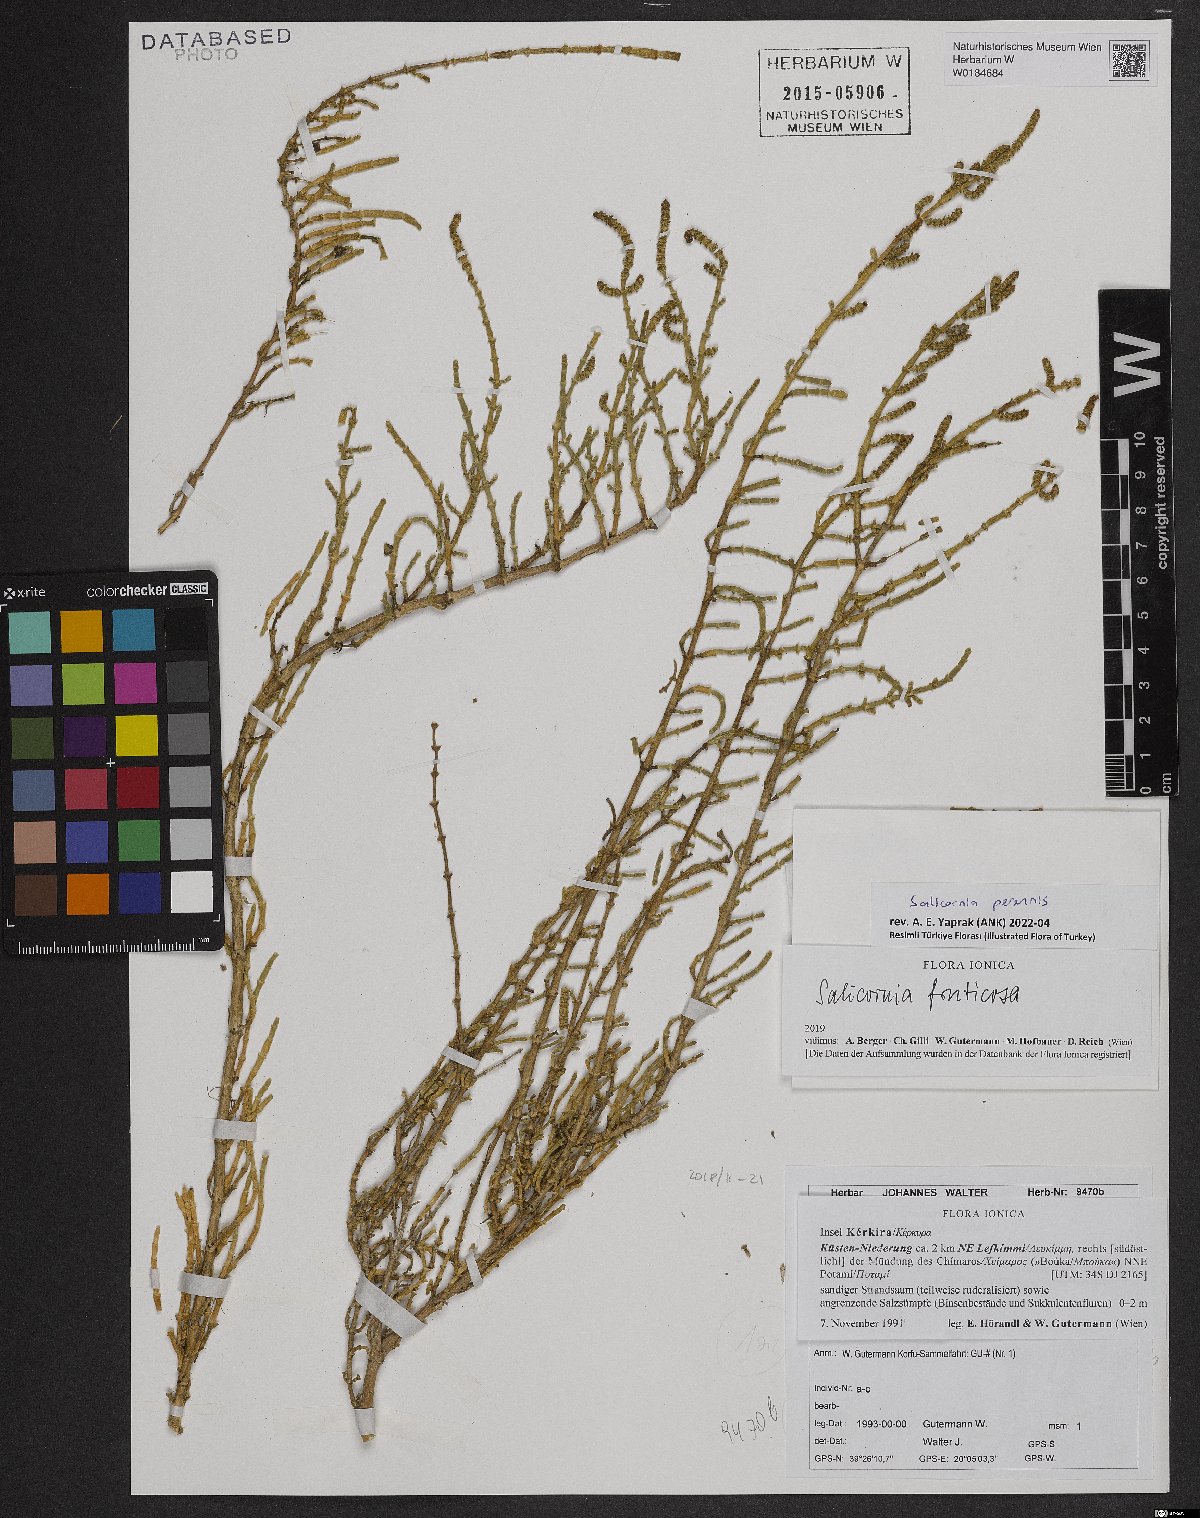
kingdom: Plantae
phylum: Tracheophyta
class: Magnoliopsida
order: Caryophyllales
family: Amaranthaceae
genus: Salicornia
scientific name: Salicornia perennis
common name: Chicken claws
